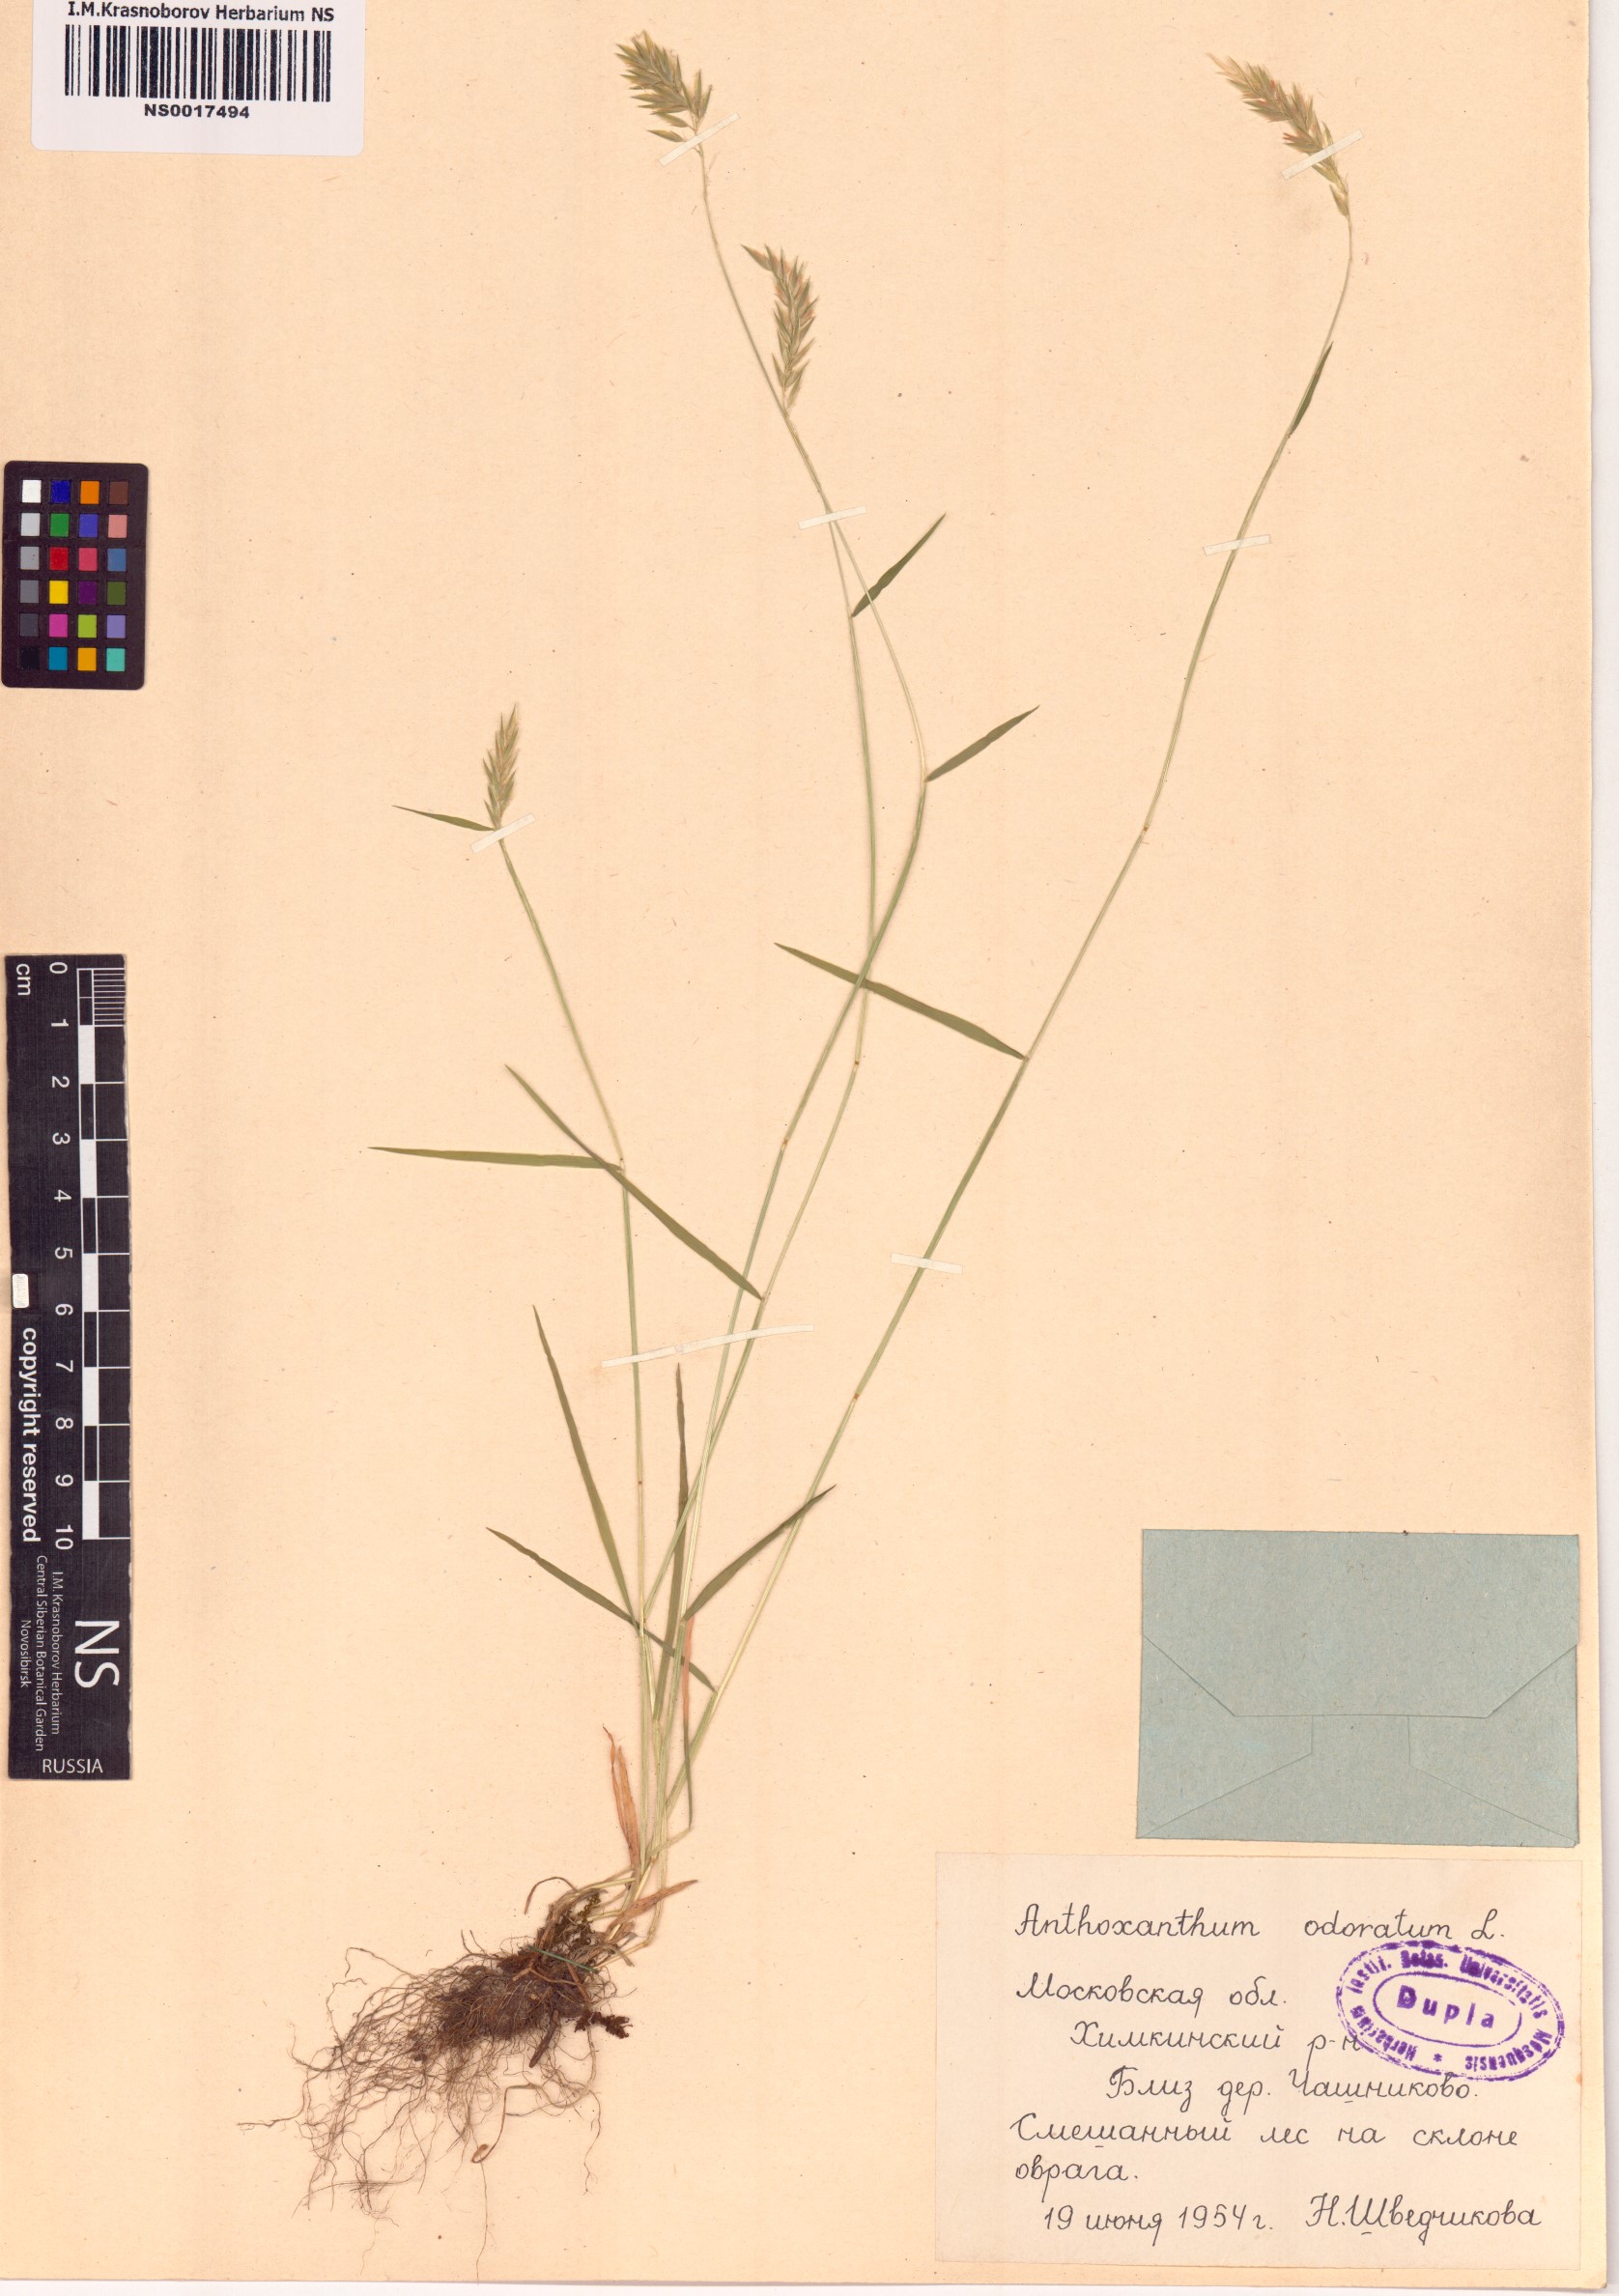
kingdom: Plantae
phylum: Tracheophyta
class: Liliopsida
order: Poales
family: Poaceae
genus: Anthoxanthum
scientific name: Anthoxanthum odoratum
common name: Sweet vernalgrass
